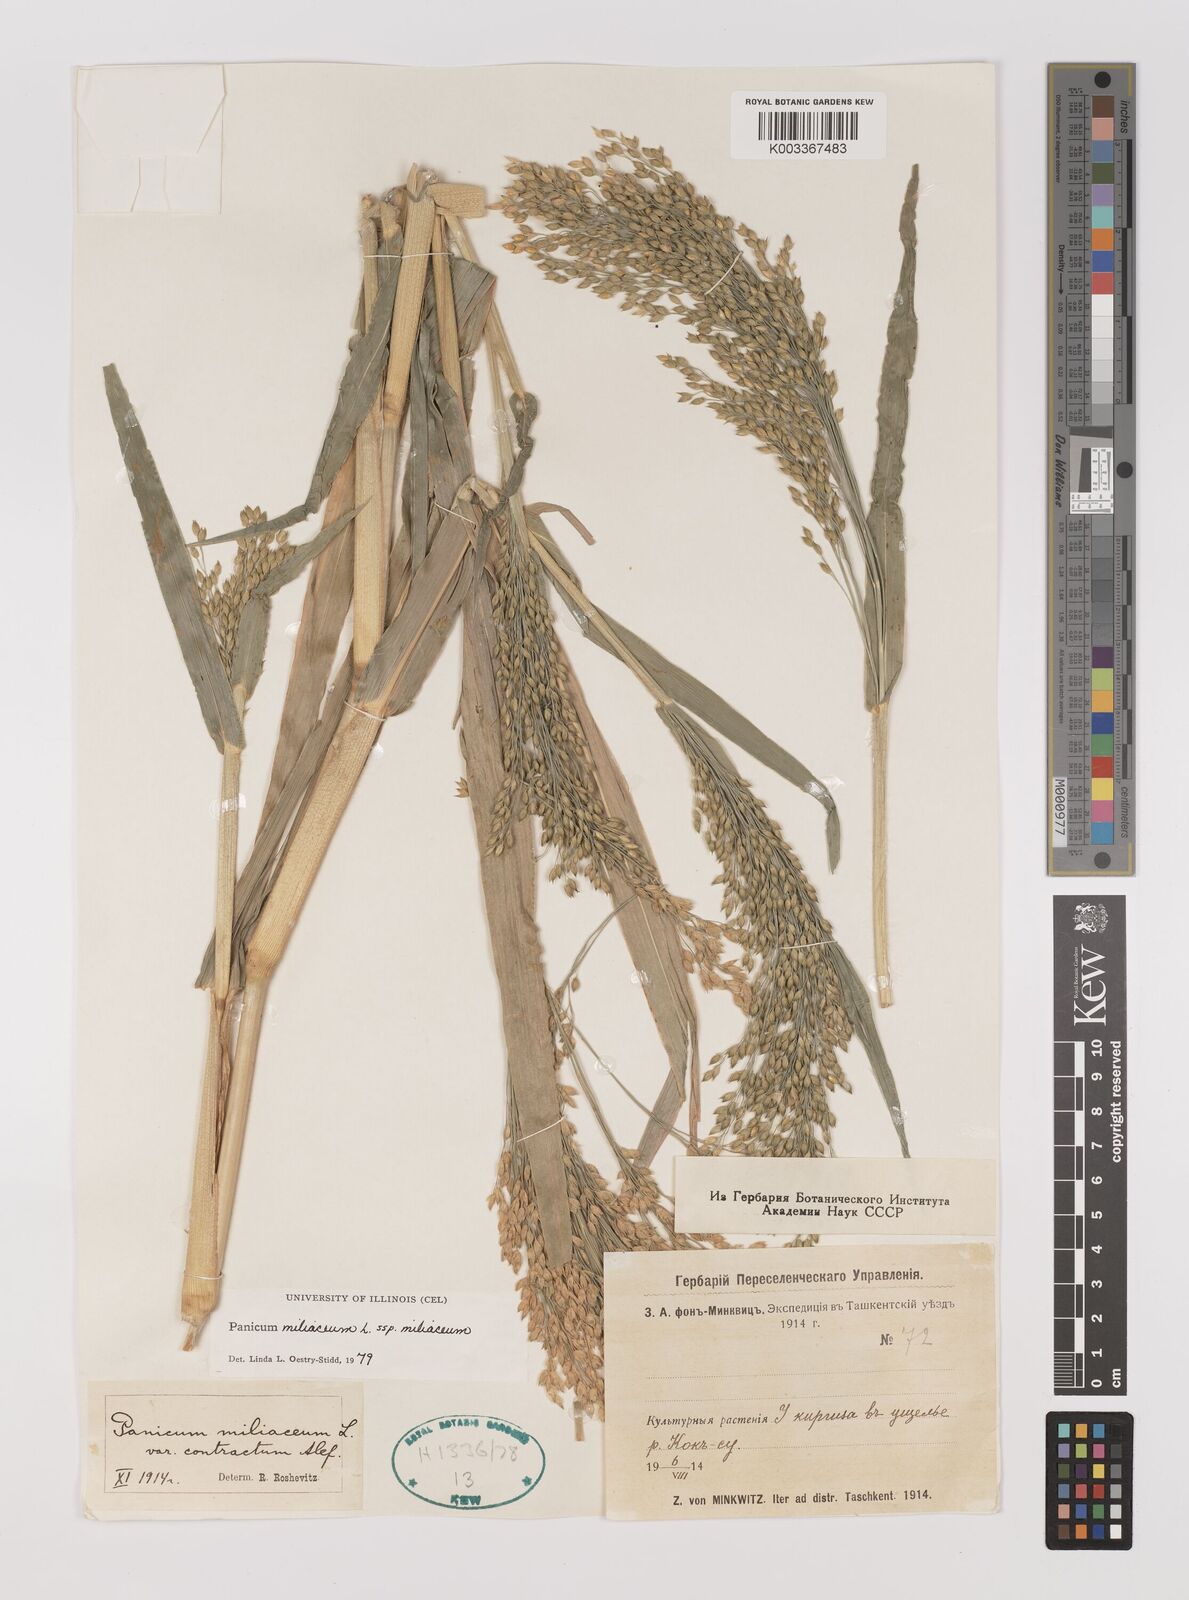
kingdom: Plantae
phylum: Tracheophyta
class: Liliopsida
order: Poales
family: Poaceae
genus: Panicum
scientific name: Panicum miliaceum
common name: Common millet
